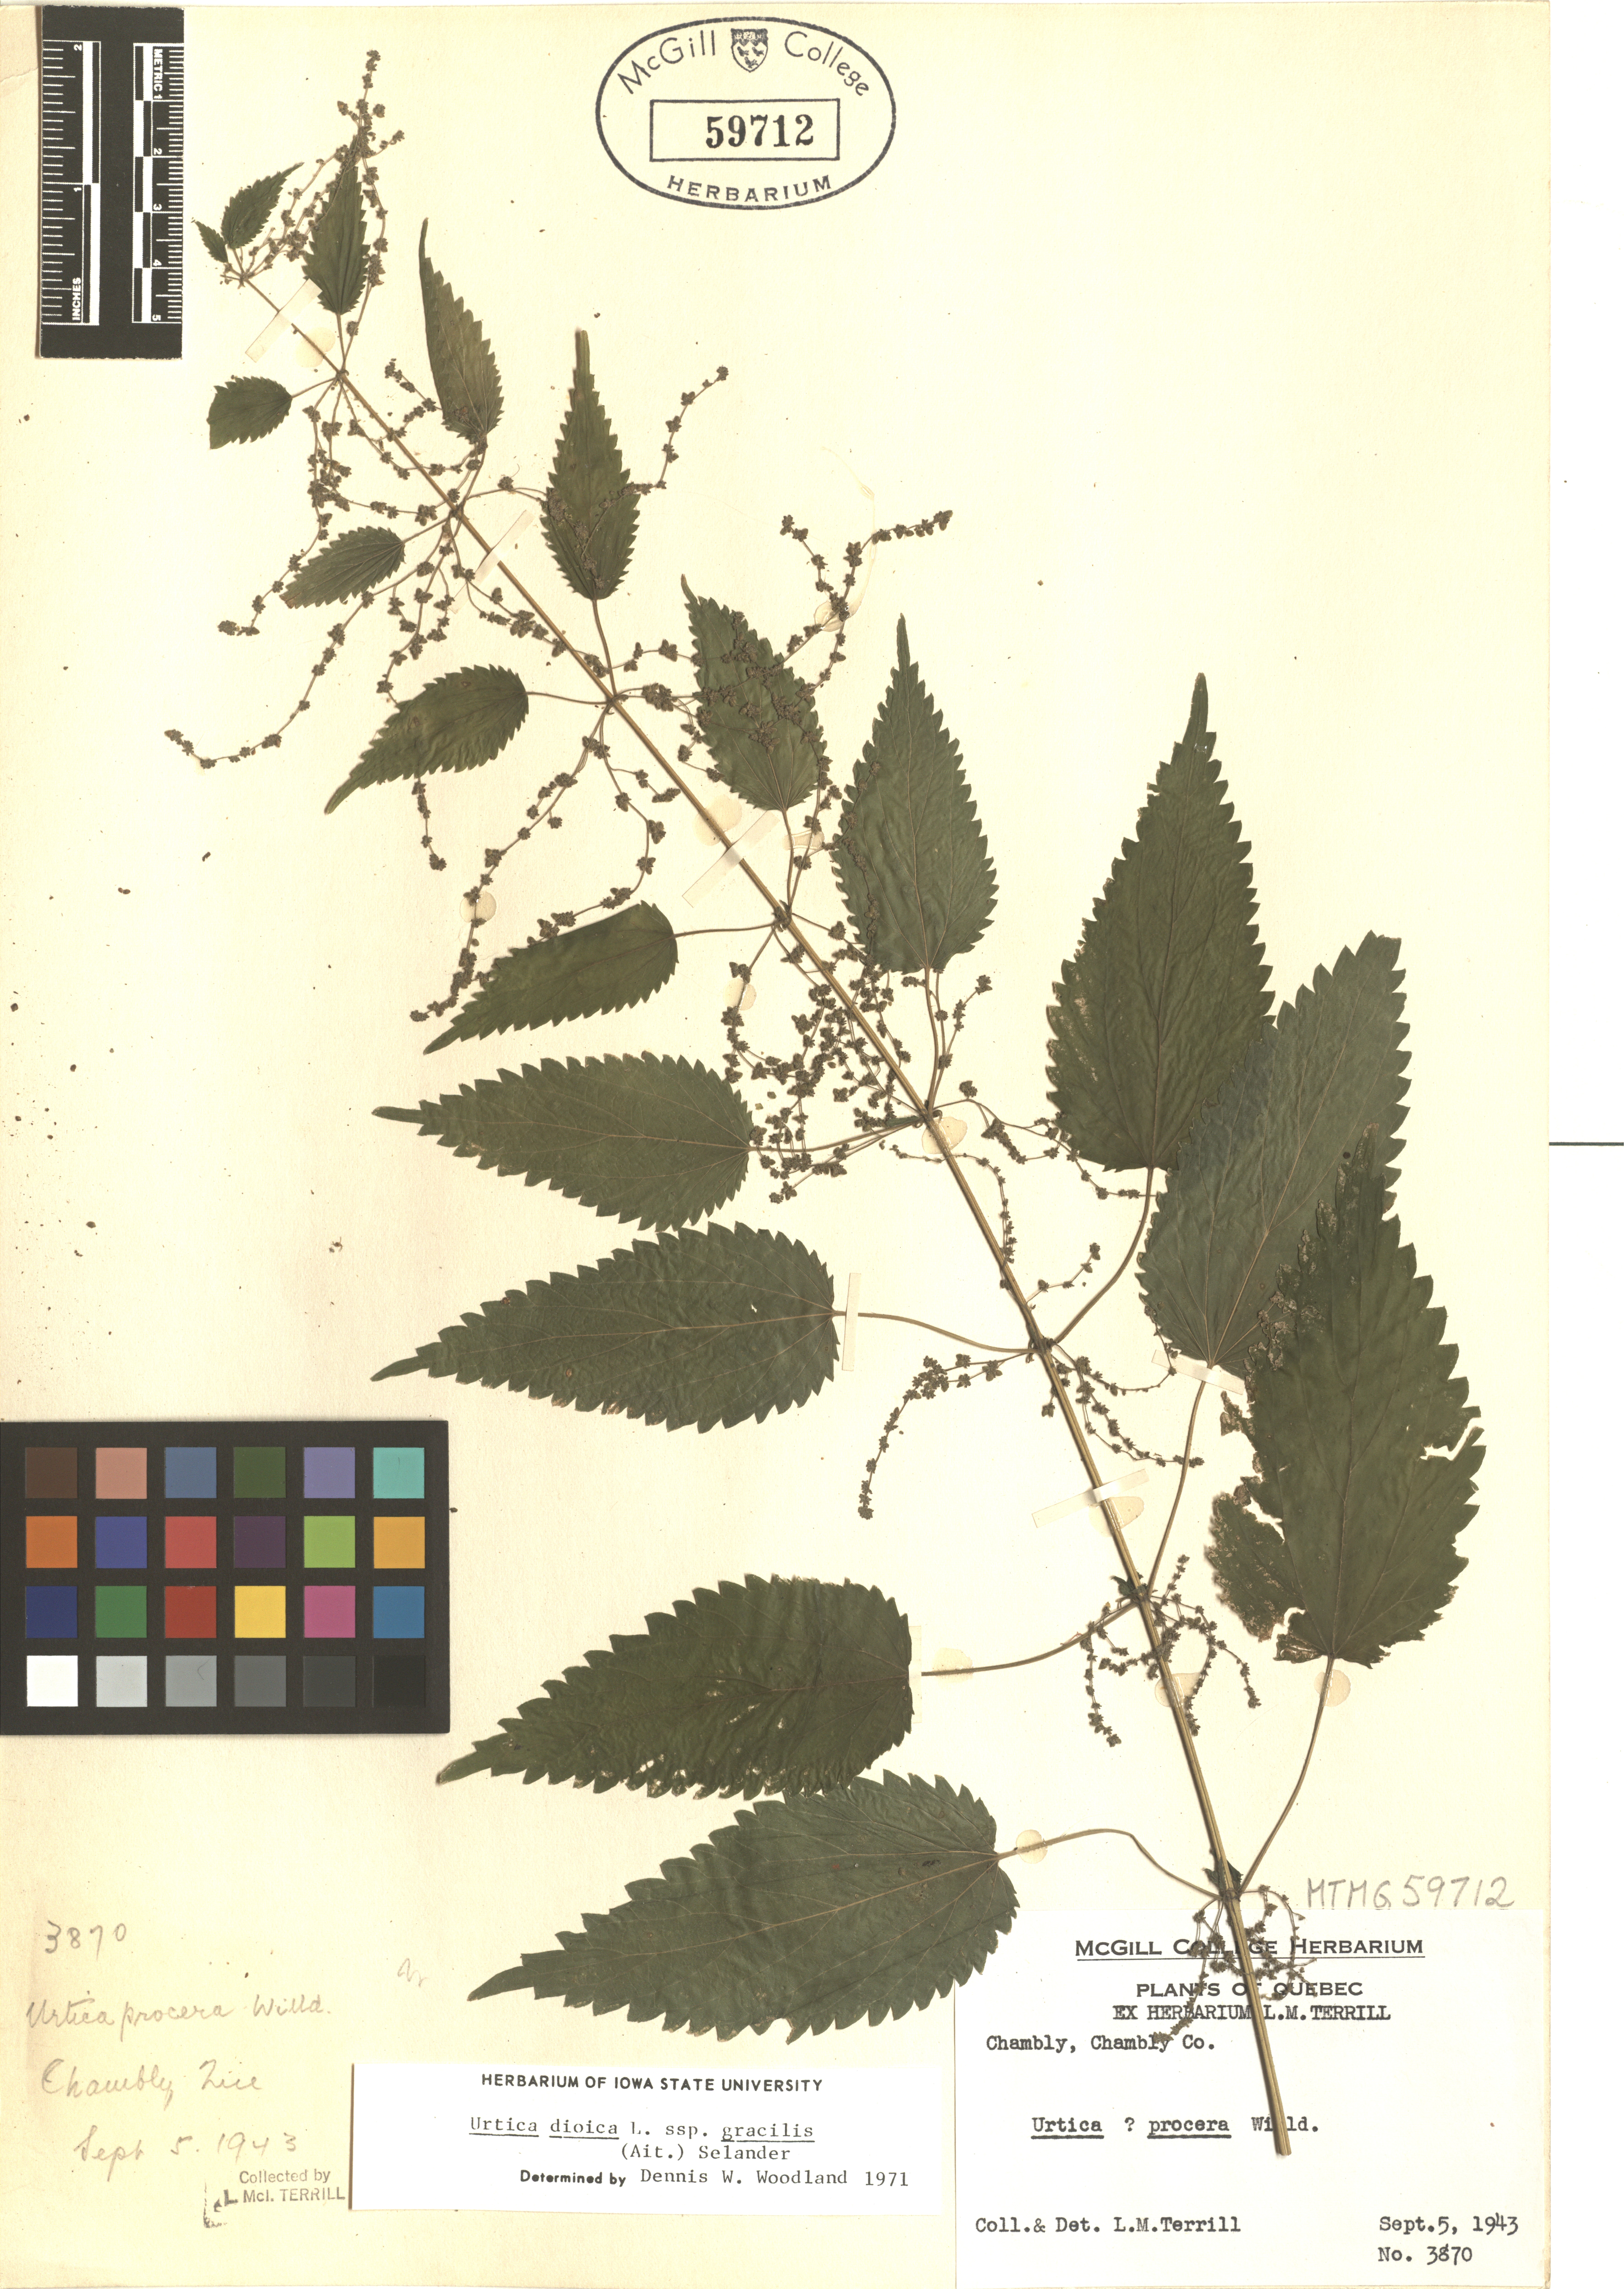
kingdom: Plantae
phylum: Tracheophyta
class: Magnoliopsida
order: Rosales
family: Urticaceae
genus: Urtica
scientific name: Urtica gracilis
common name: Slender stinging nettle
